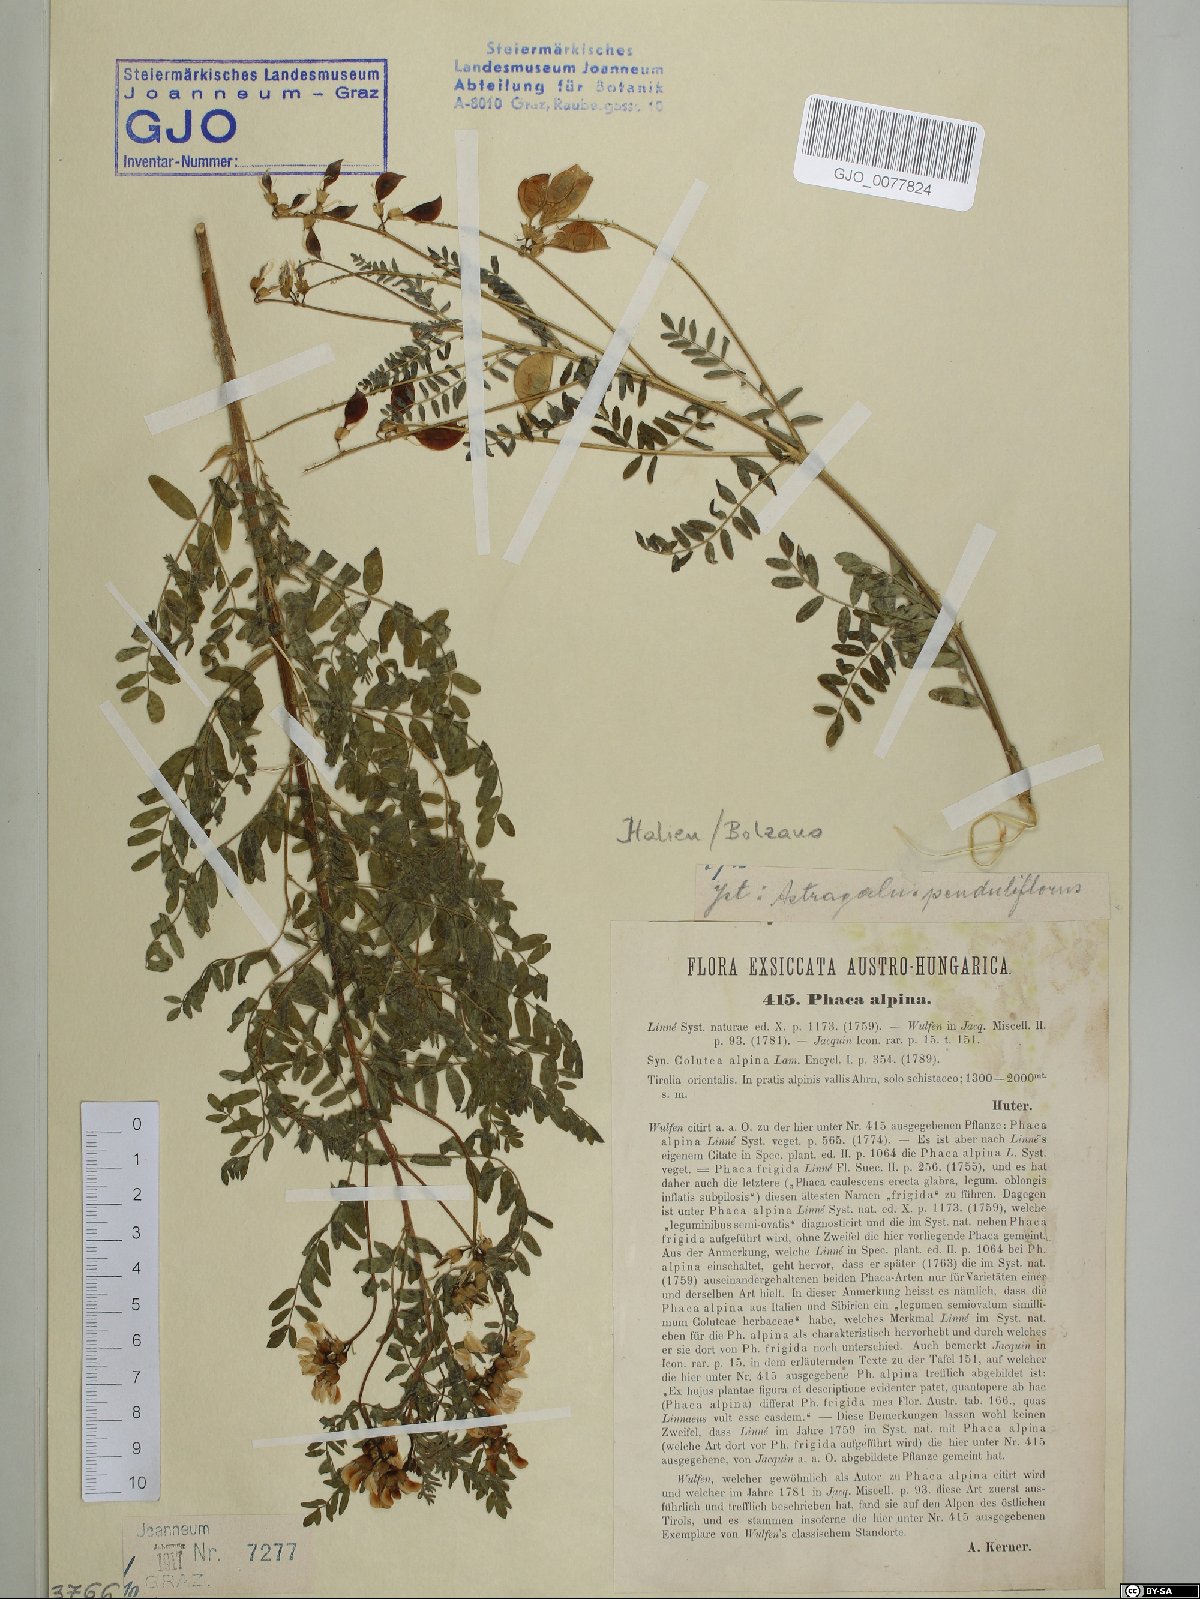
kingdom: Plantae
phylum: Tracheophyta
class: Magnoliopsida
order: Fabales
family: Fabaceae
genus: Astragalus
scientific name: Astragalus penduliflorus
